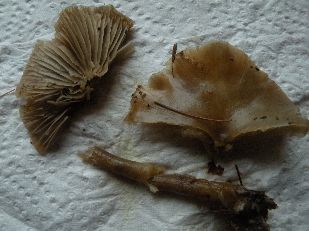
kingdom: Fungi
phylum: Basidiomycota
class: Agaricomycetes
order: Agaricales
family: Tricholomataceae
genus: Clitocybe
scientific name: Clitocybe metachroa
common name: grå tragthat
